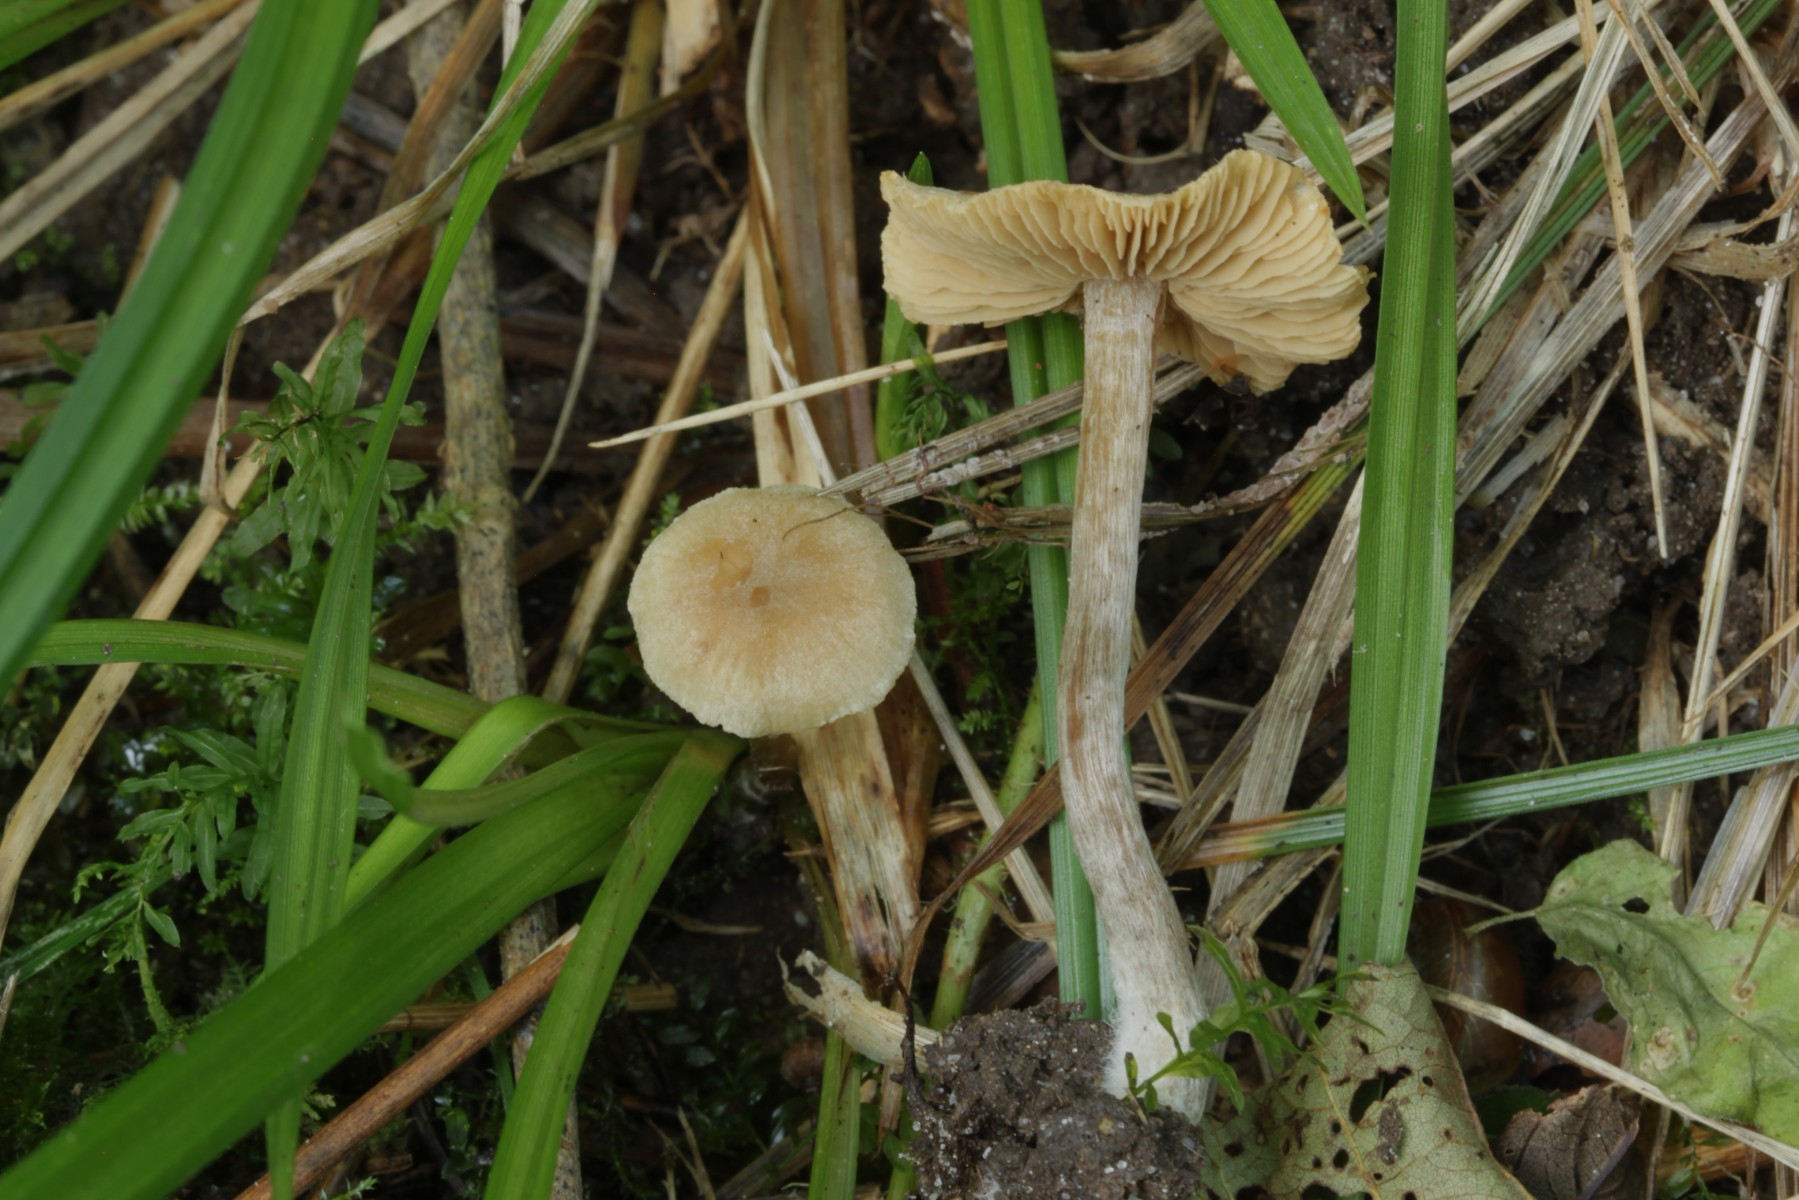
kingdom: Fungi
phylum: Basidiomycota
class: Agaricomycetes
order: Agaricales
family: Hymenogastraceae
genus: Naucoria
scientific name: Naucoria escharioides
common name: lys elle-knaphat
